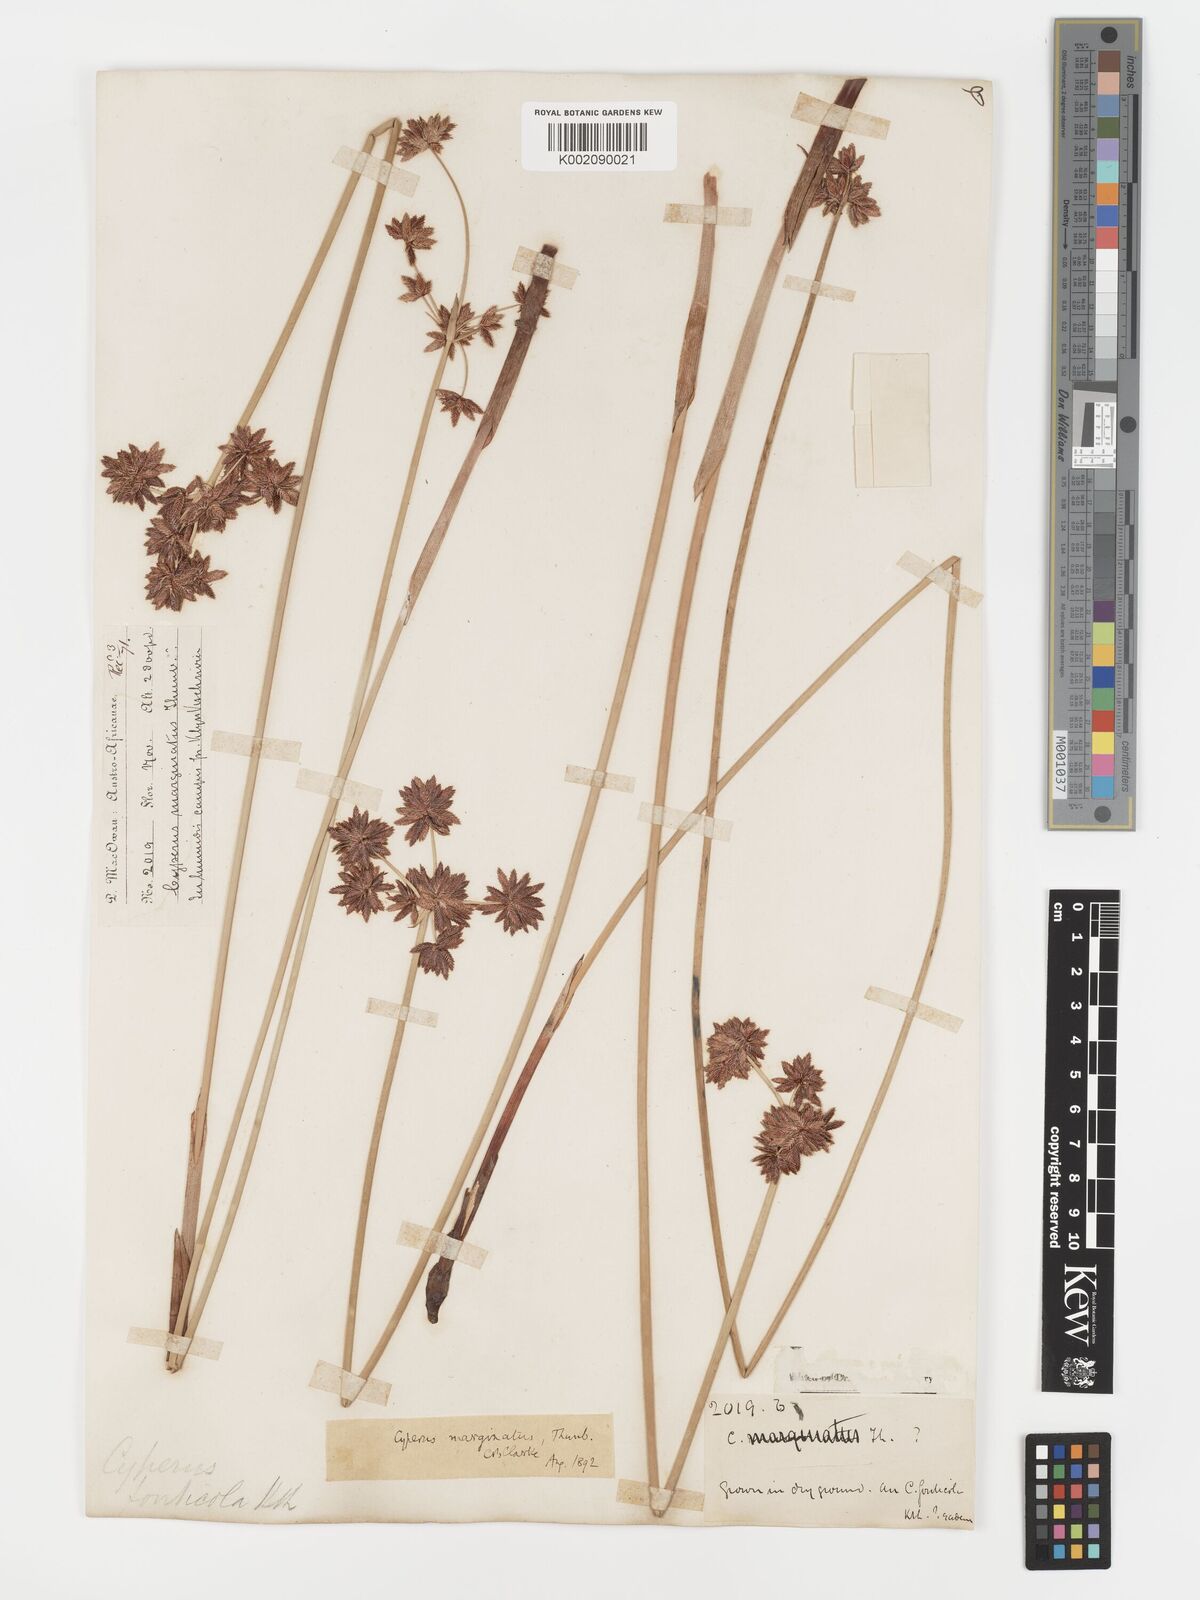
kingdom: Plantae
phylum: Tracheophyta
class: Liliopsida
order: Poales
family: Cyperaceae
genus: Cyperus
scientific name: Cyperus marginatus
